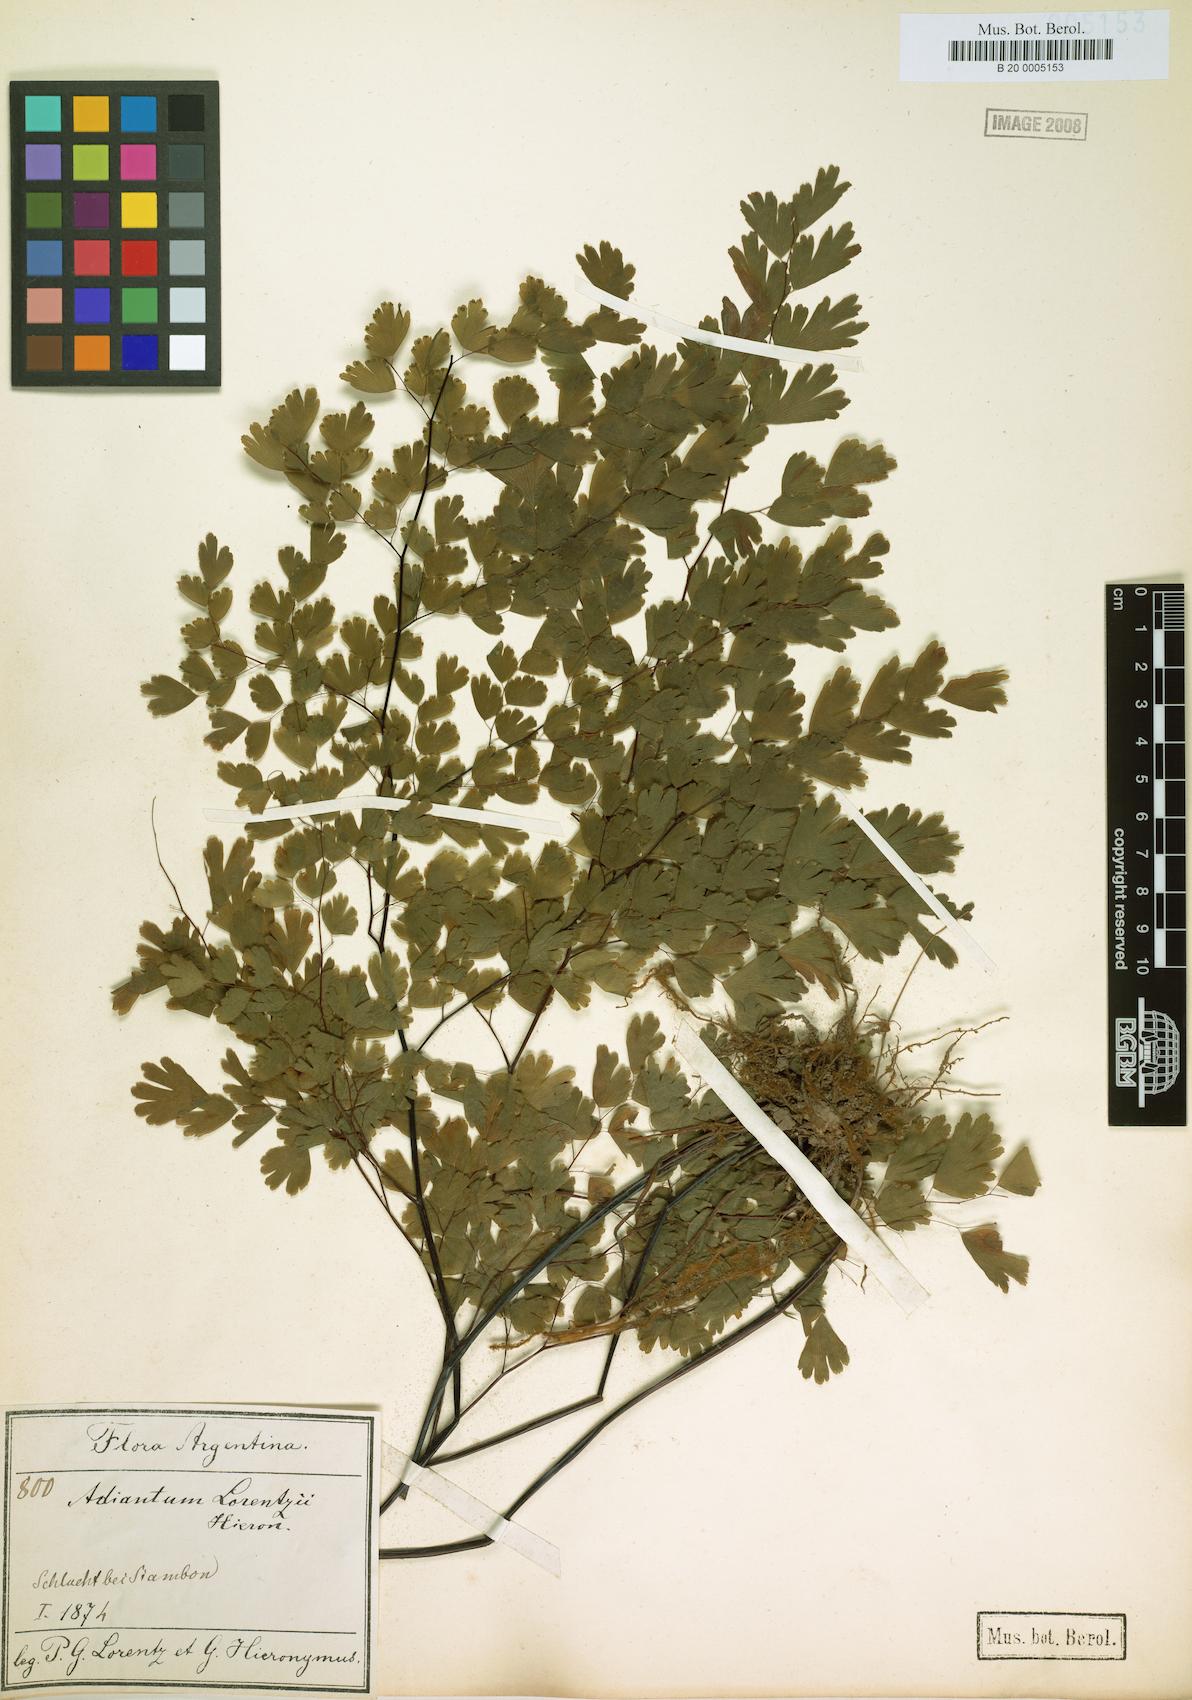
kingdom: Plantae
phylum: Tracheophyta
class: Polypodiopsida
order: Polypodiales
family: Pteridaceae
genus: Adiantum
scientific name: Adiantum lorentzii
